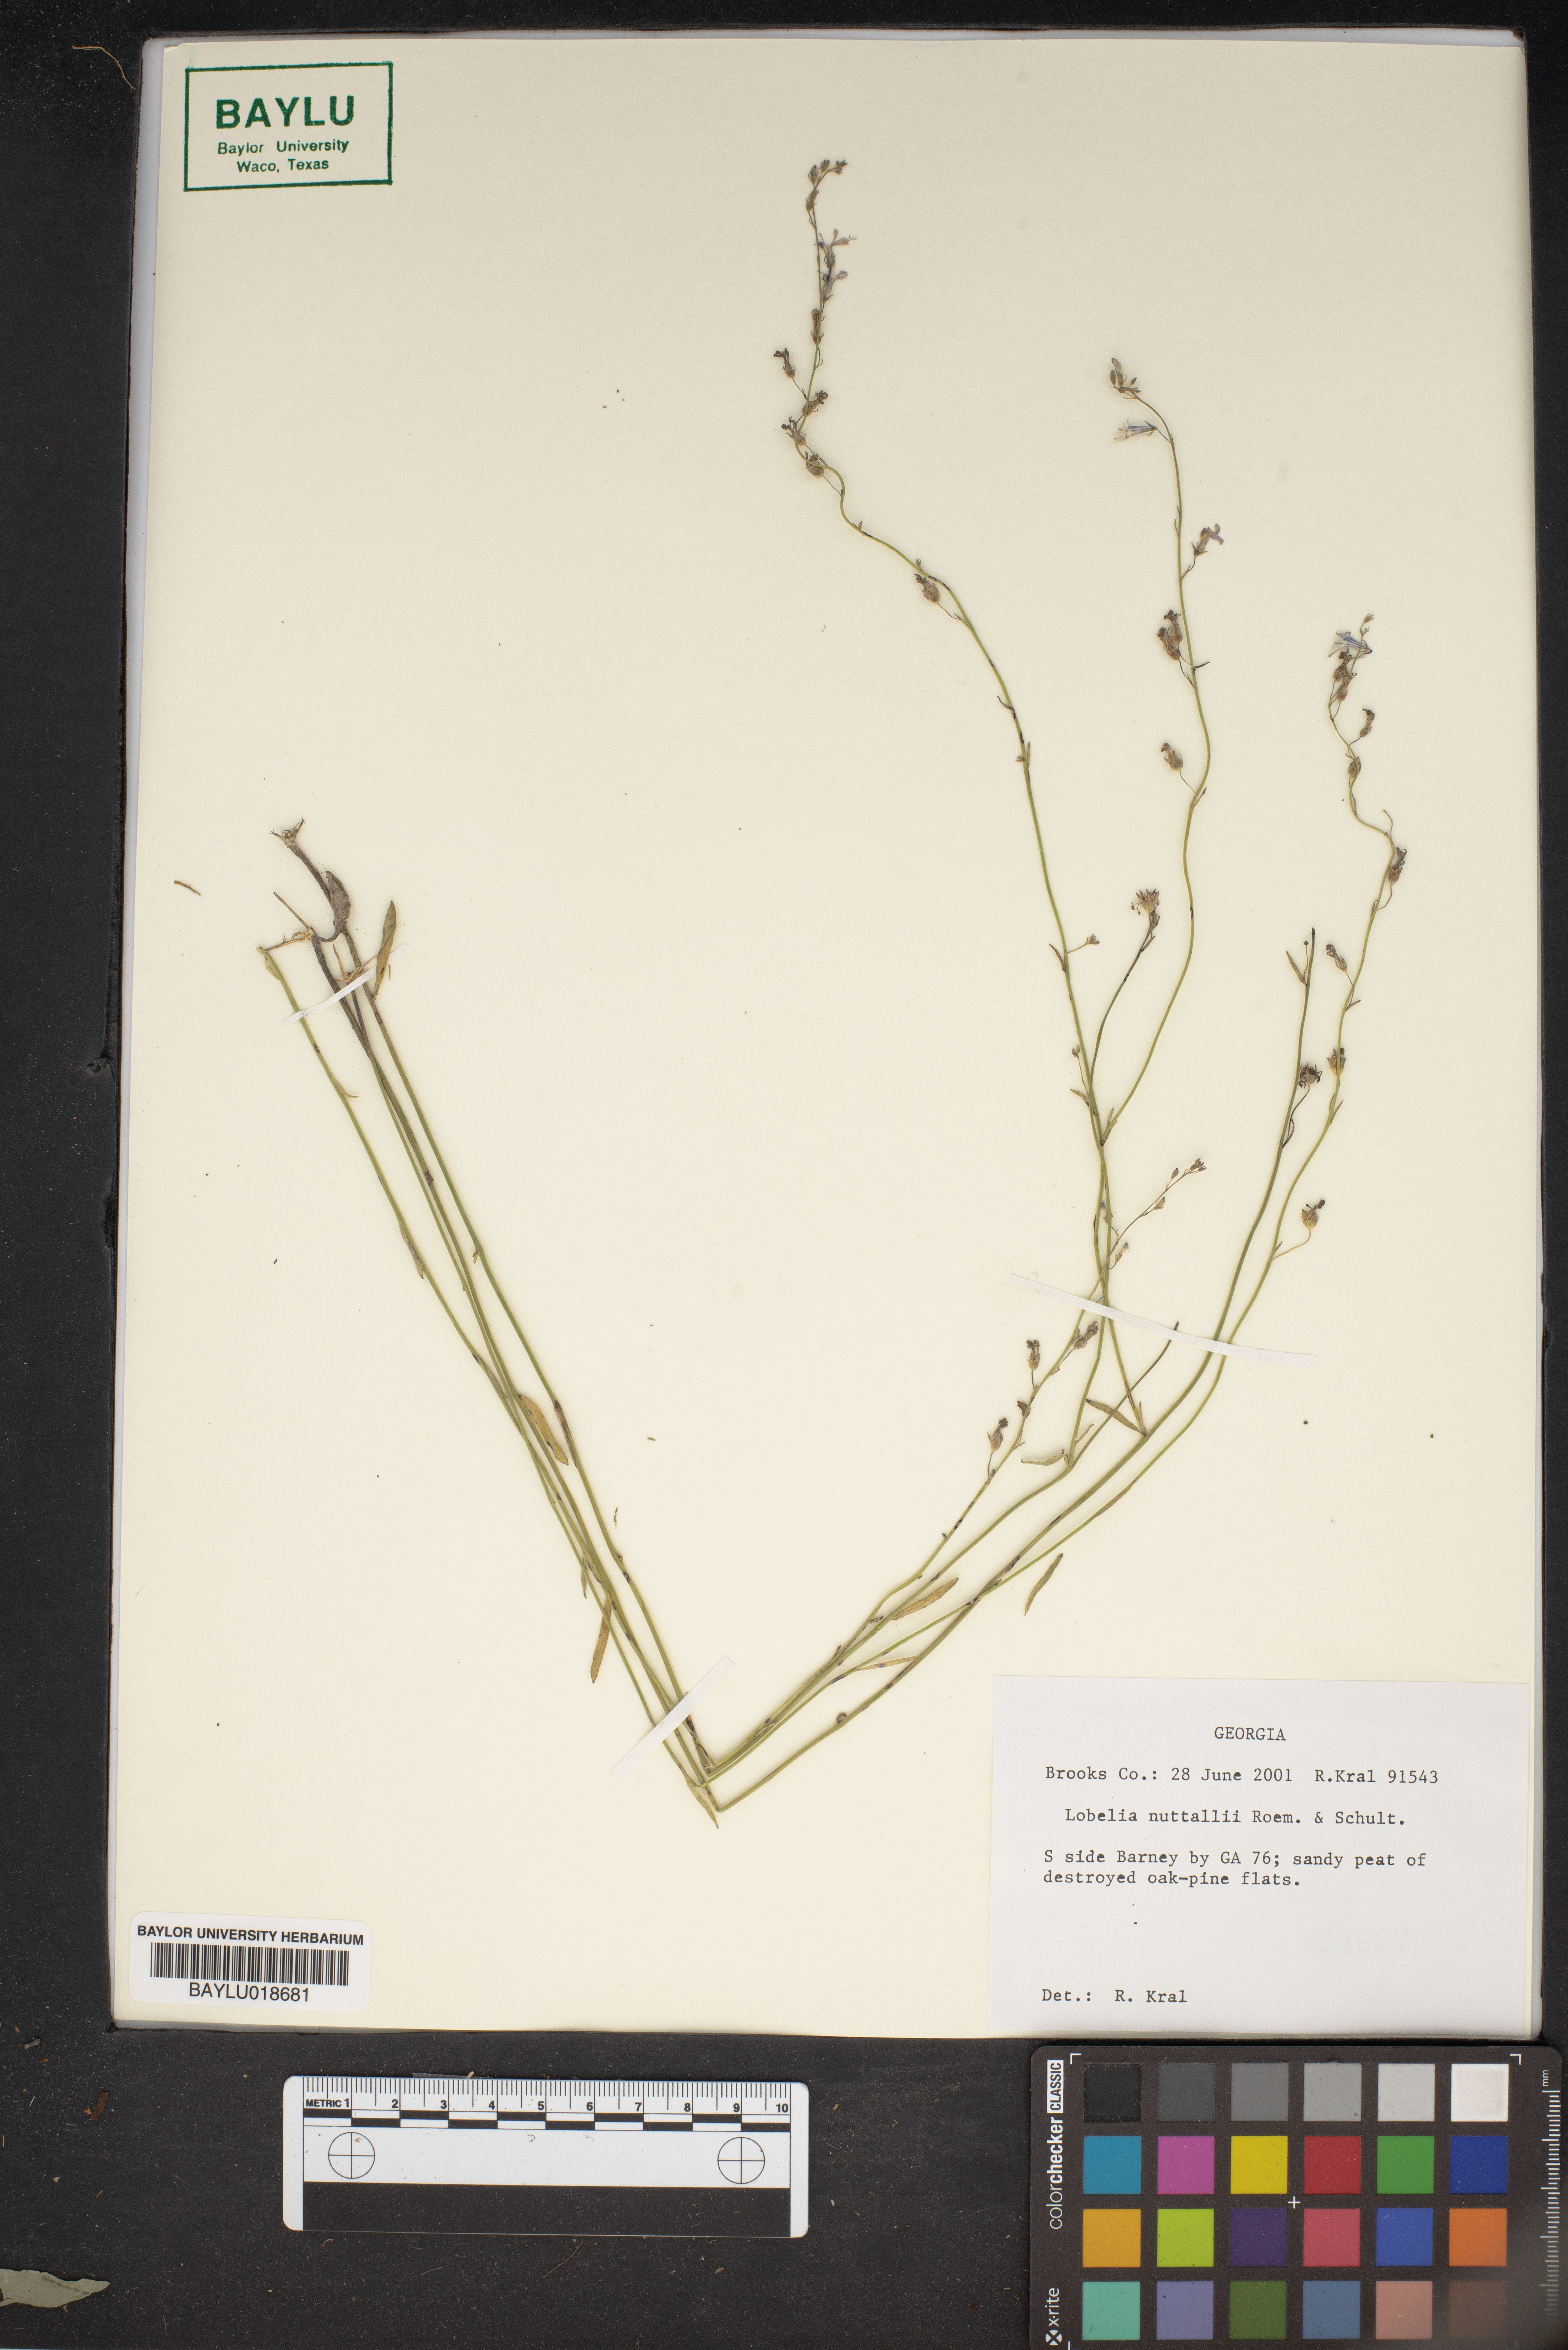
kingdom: Plantae
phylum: Tracheophyta
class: Magnoliopsida
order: Asterales
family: Campanulaceae
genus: Lobelia
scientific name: Lobelia nuttallii
